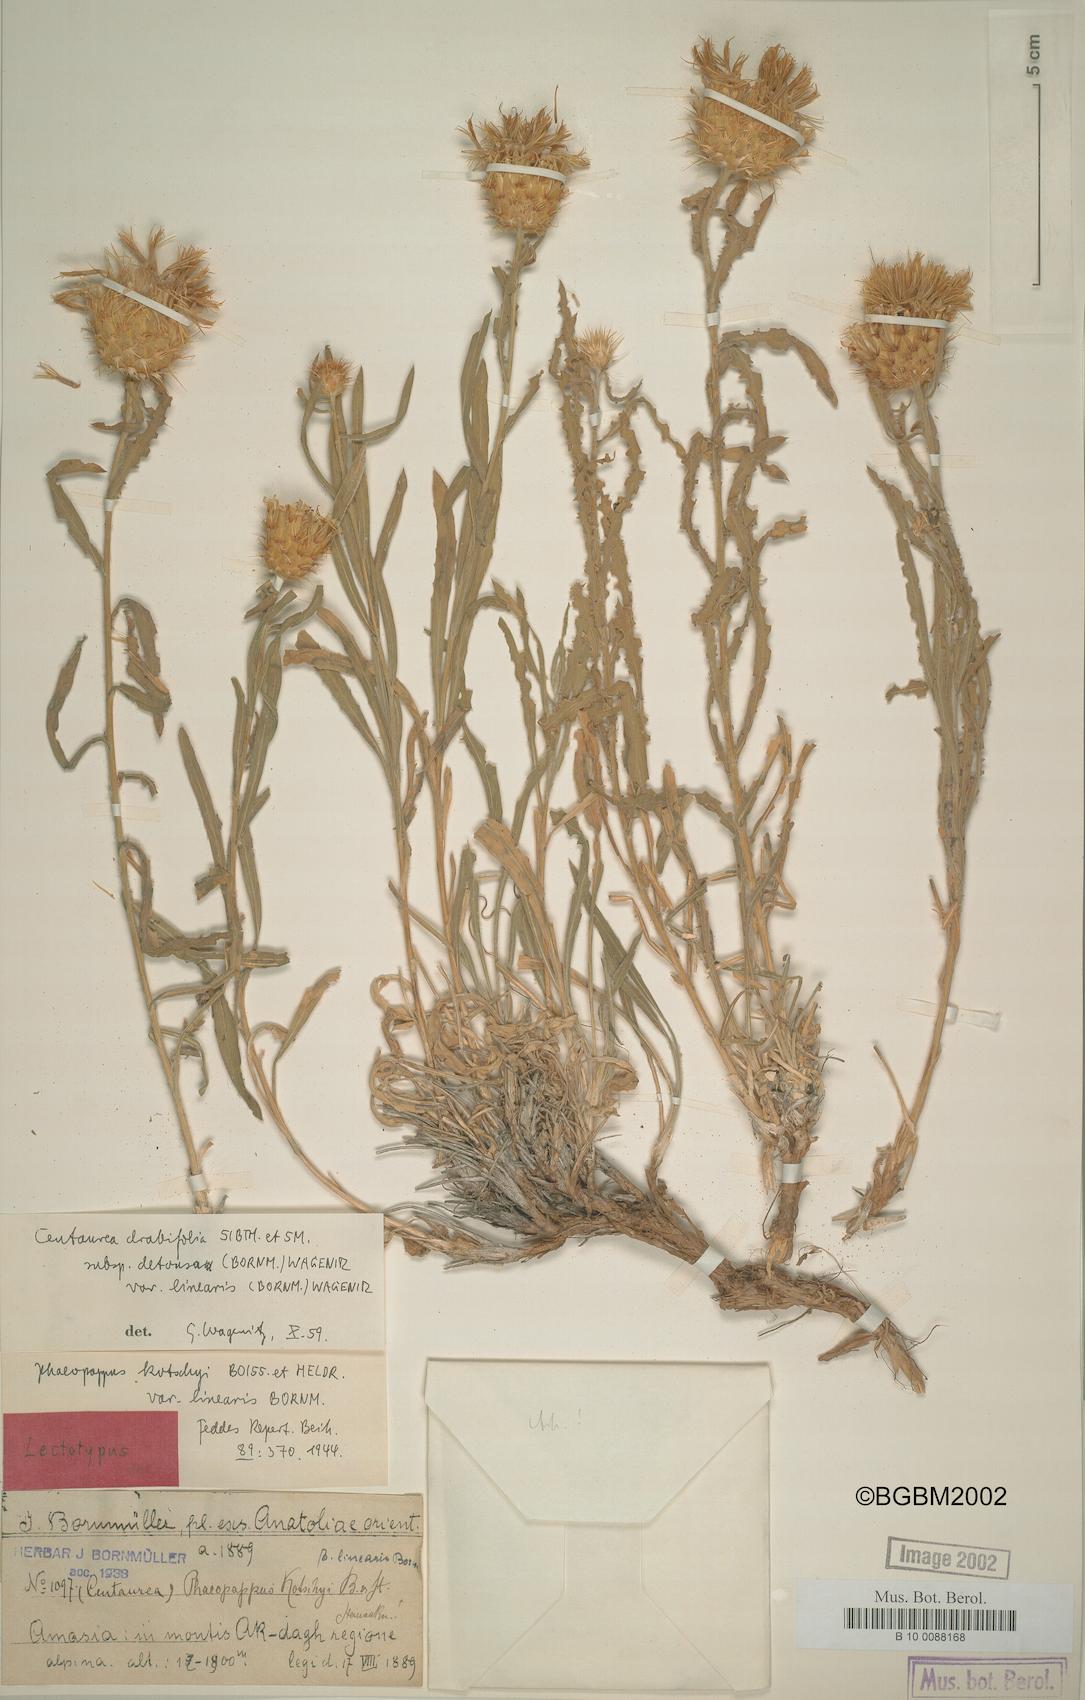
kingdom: Plantae
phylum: Tracheophyta
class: Magnoliopsida
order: Asterales
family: Asteraceae
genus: Centaurea
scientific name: Centaurea kotschyi
